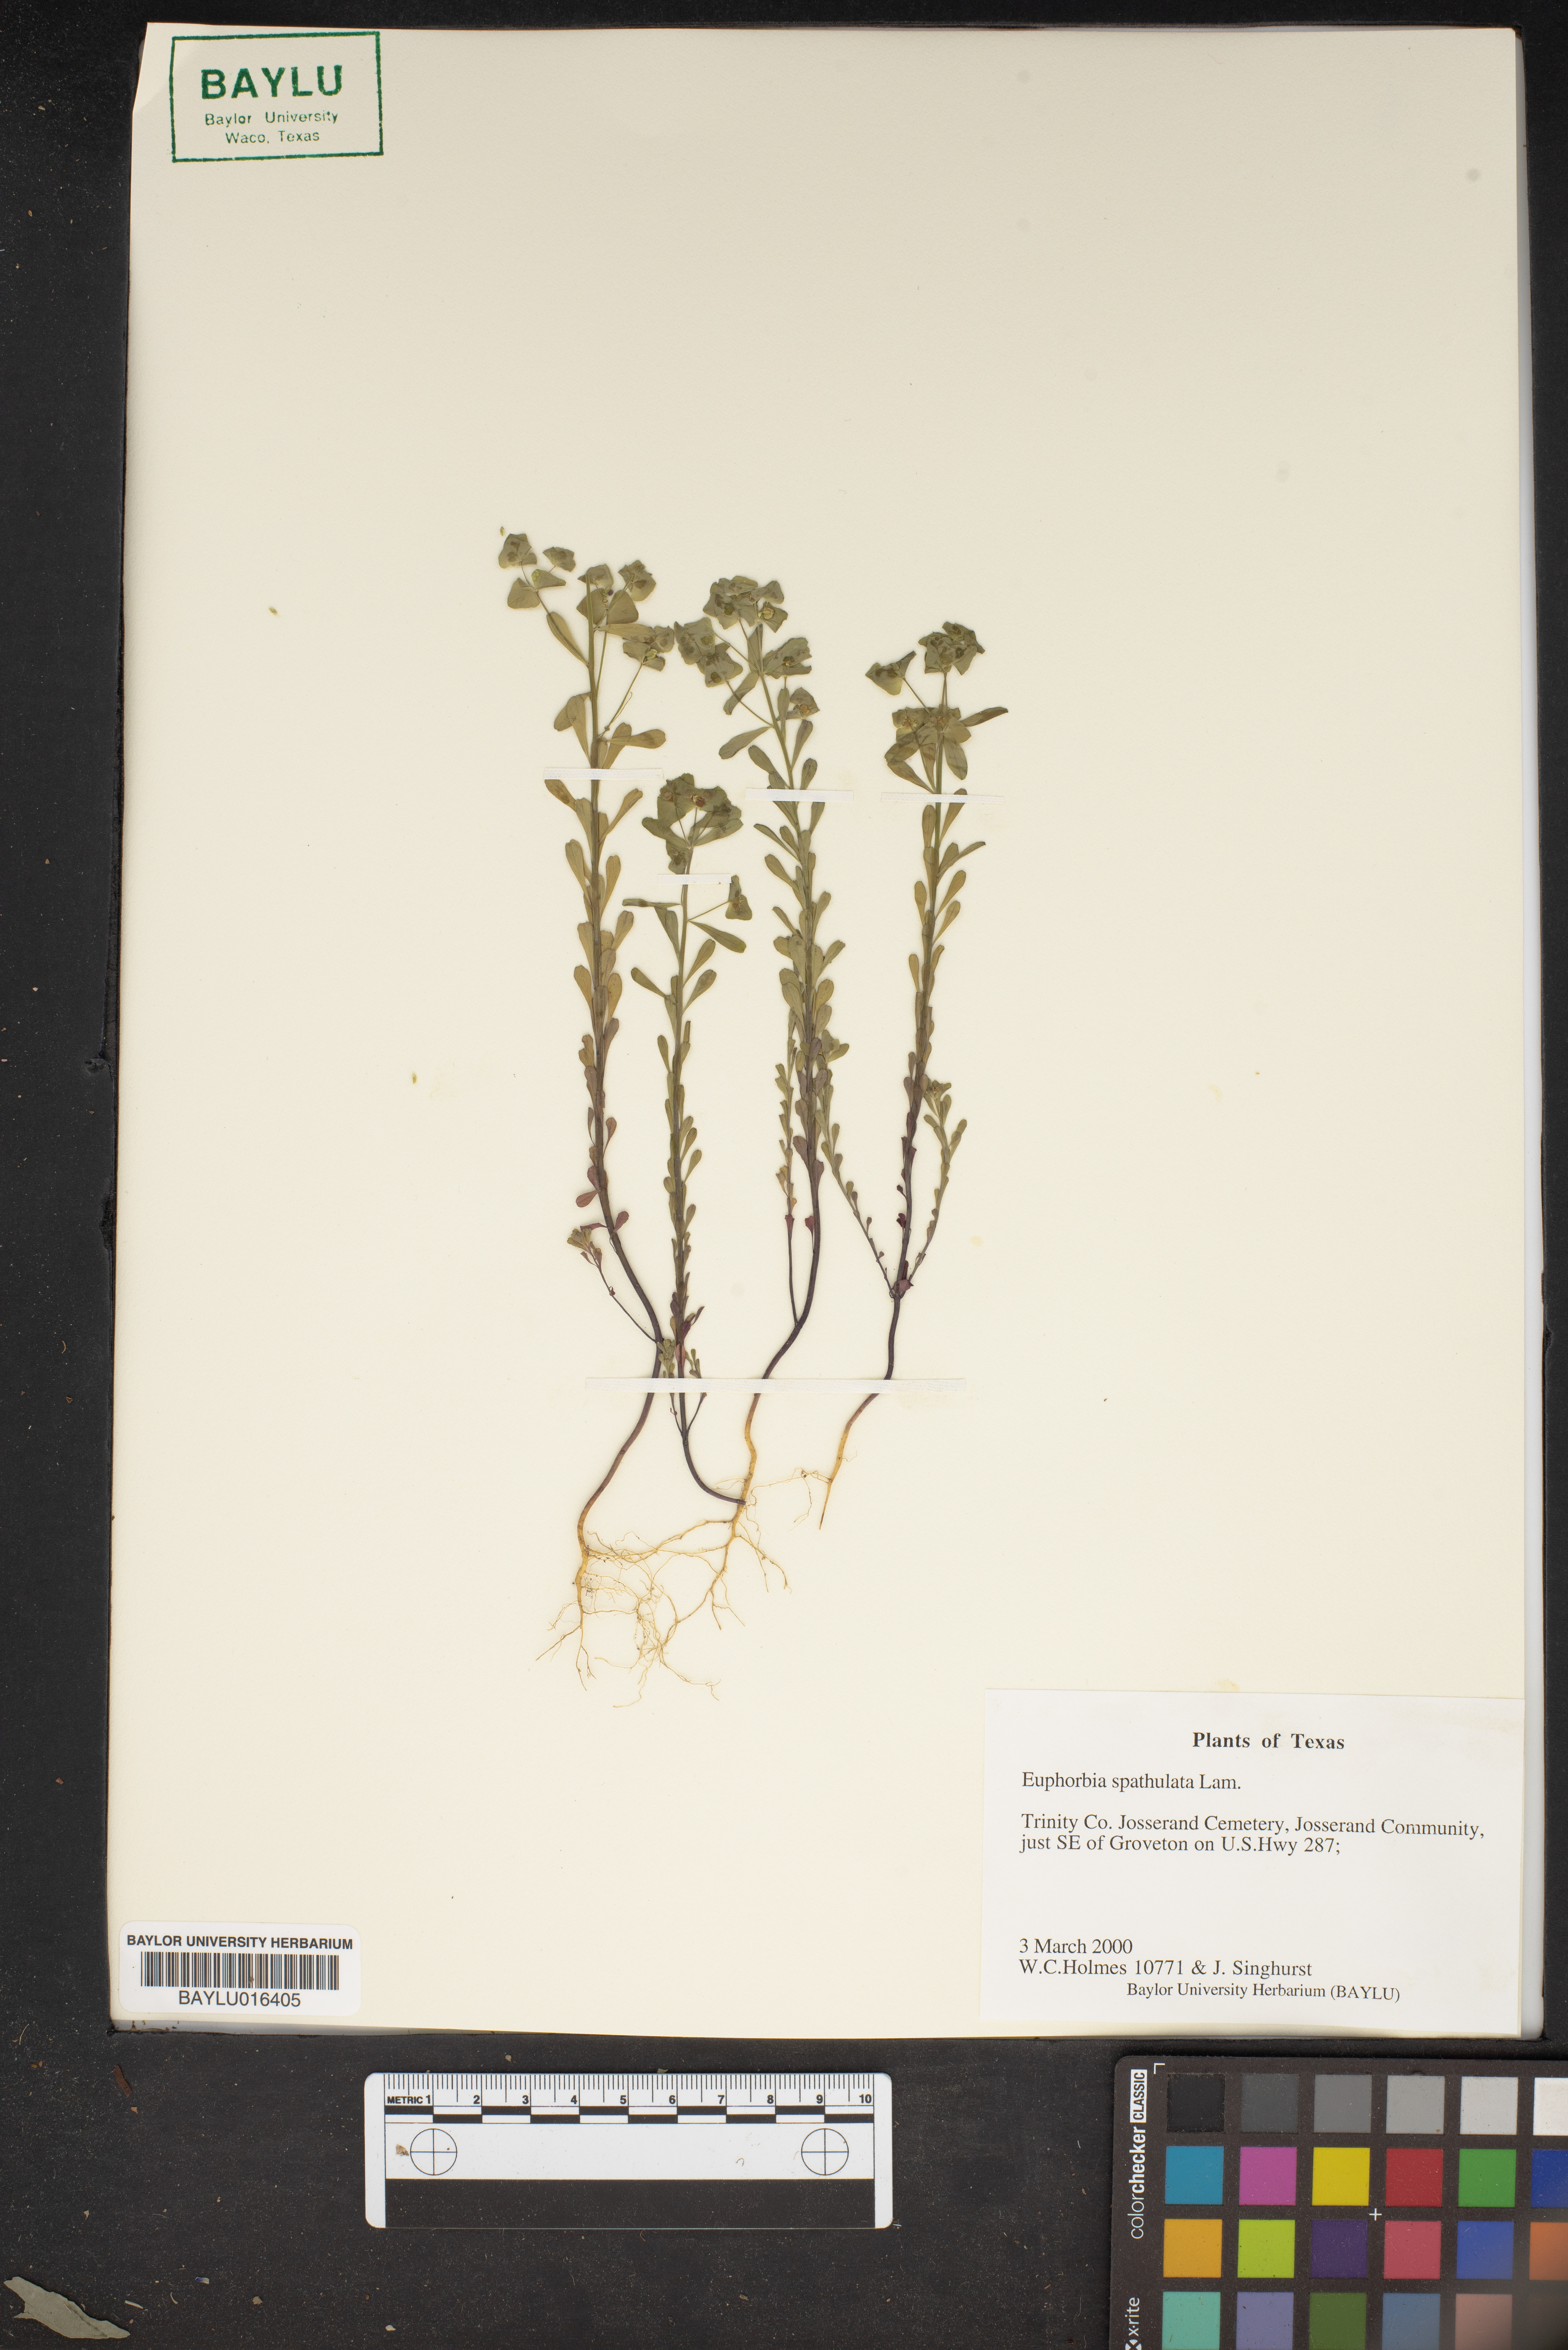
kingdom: Plantae
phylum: Tracheophyta
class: Magnoliopsida
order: Malpighiales
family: Euphorbiaceae
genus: Euphorbia
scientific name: Euphorbia spathulata
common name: Blunt spurge
